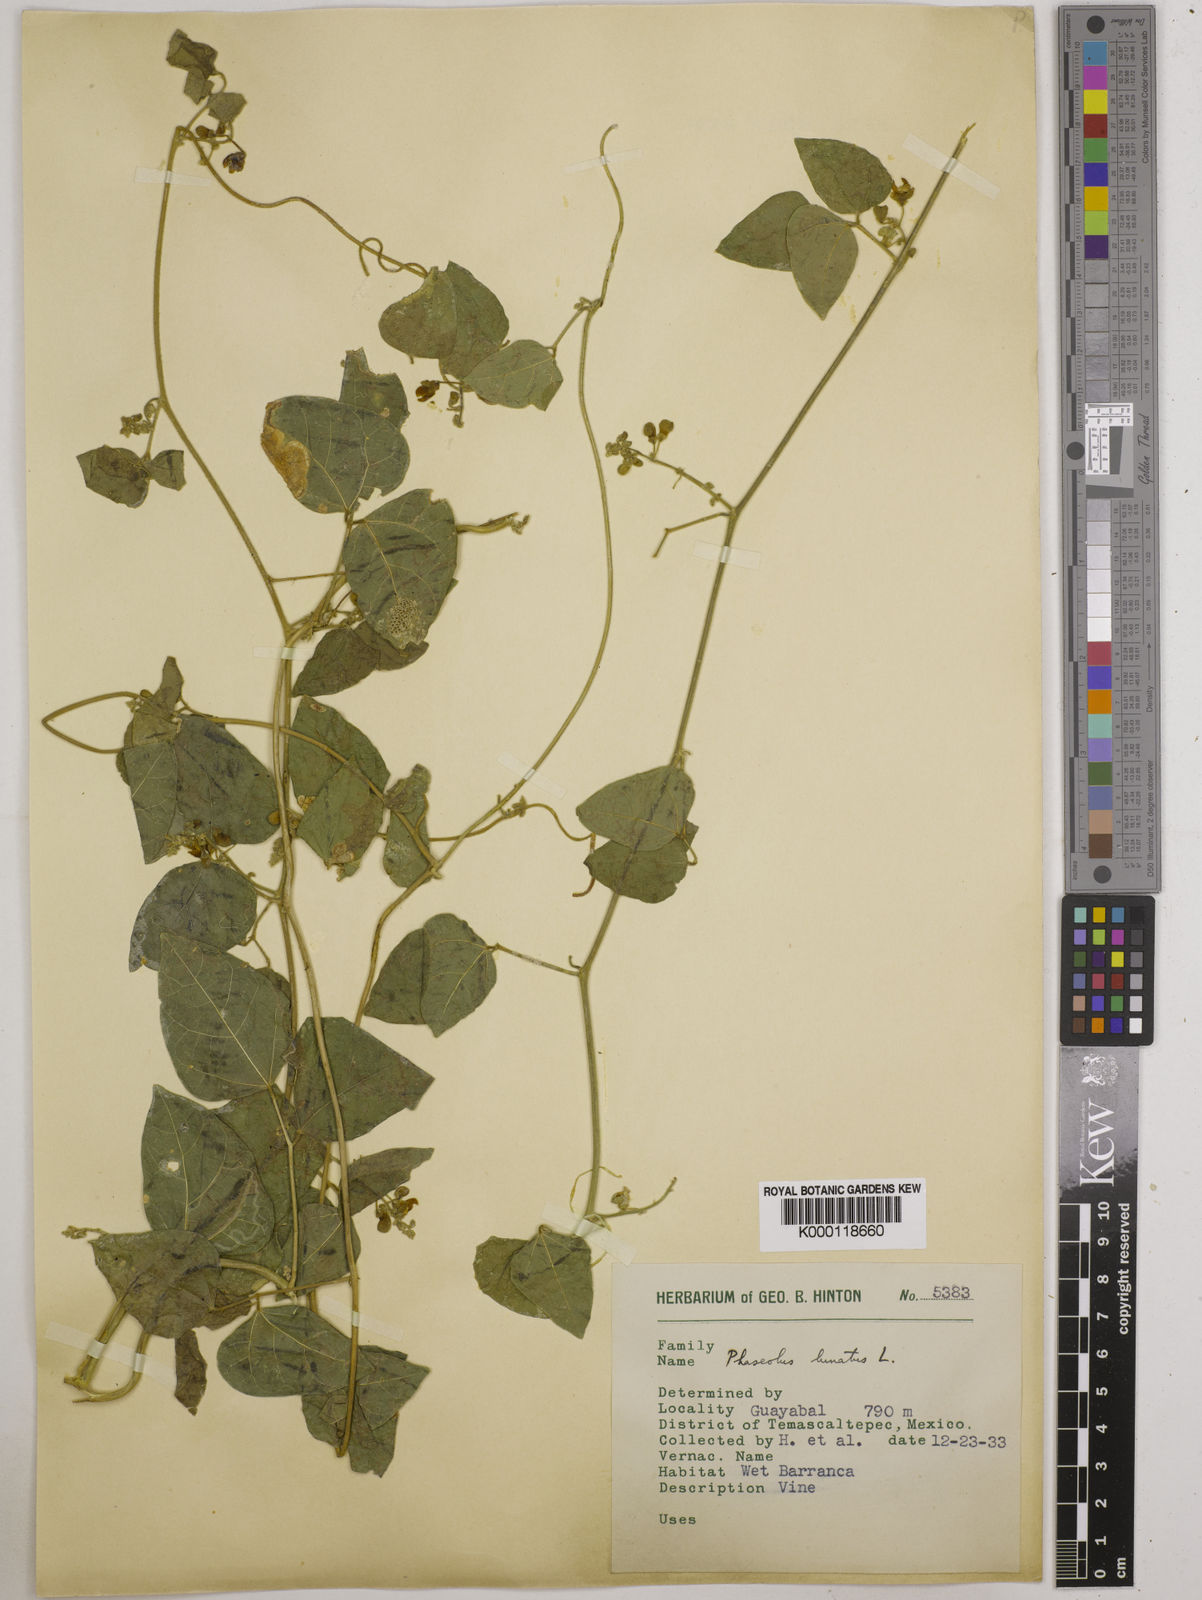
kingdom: Plantae
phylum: Tracheophyta
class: Magnoliopsida
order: Fabales
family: Fabaceae
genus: Phaseolus
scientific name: Phaseolus lunatus
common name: Sieva bean
